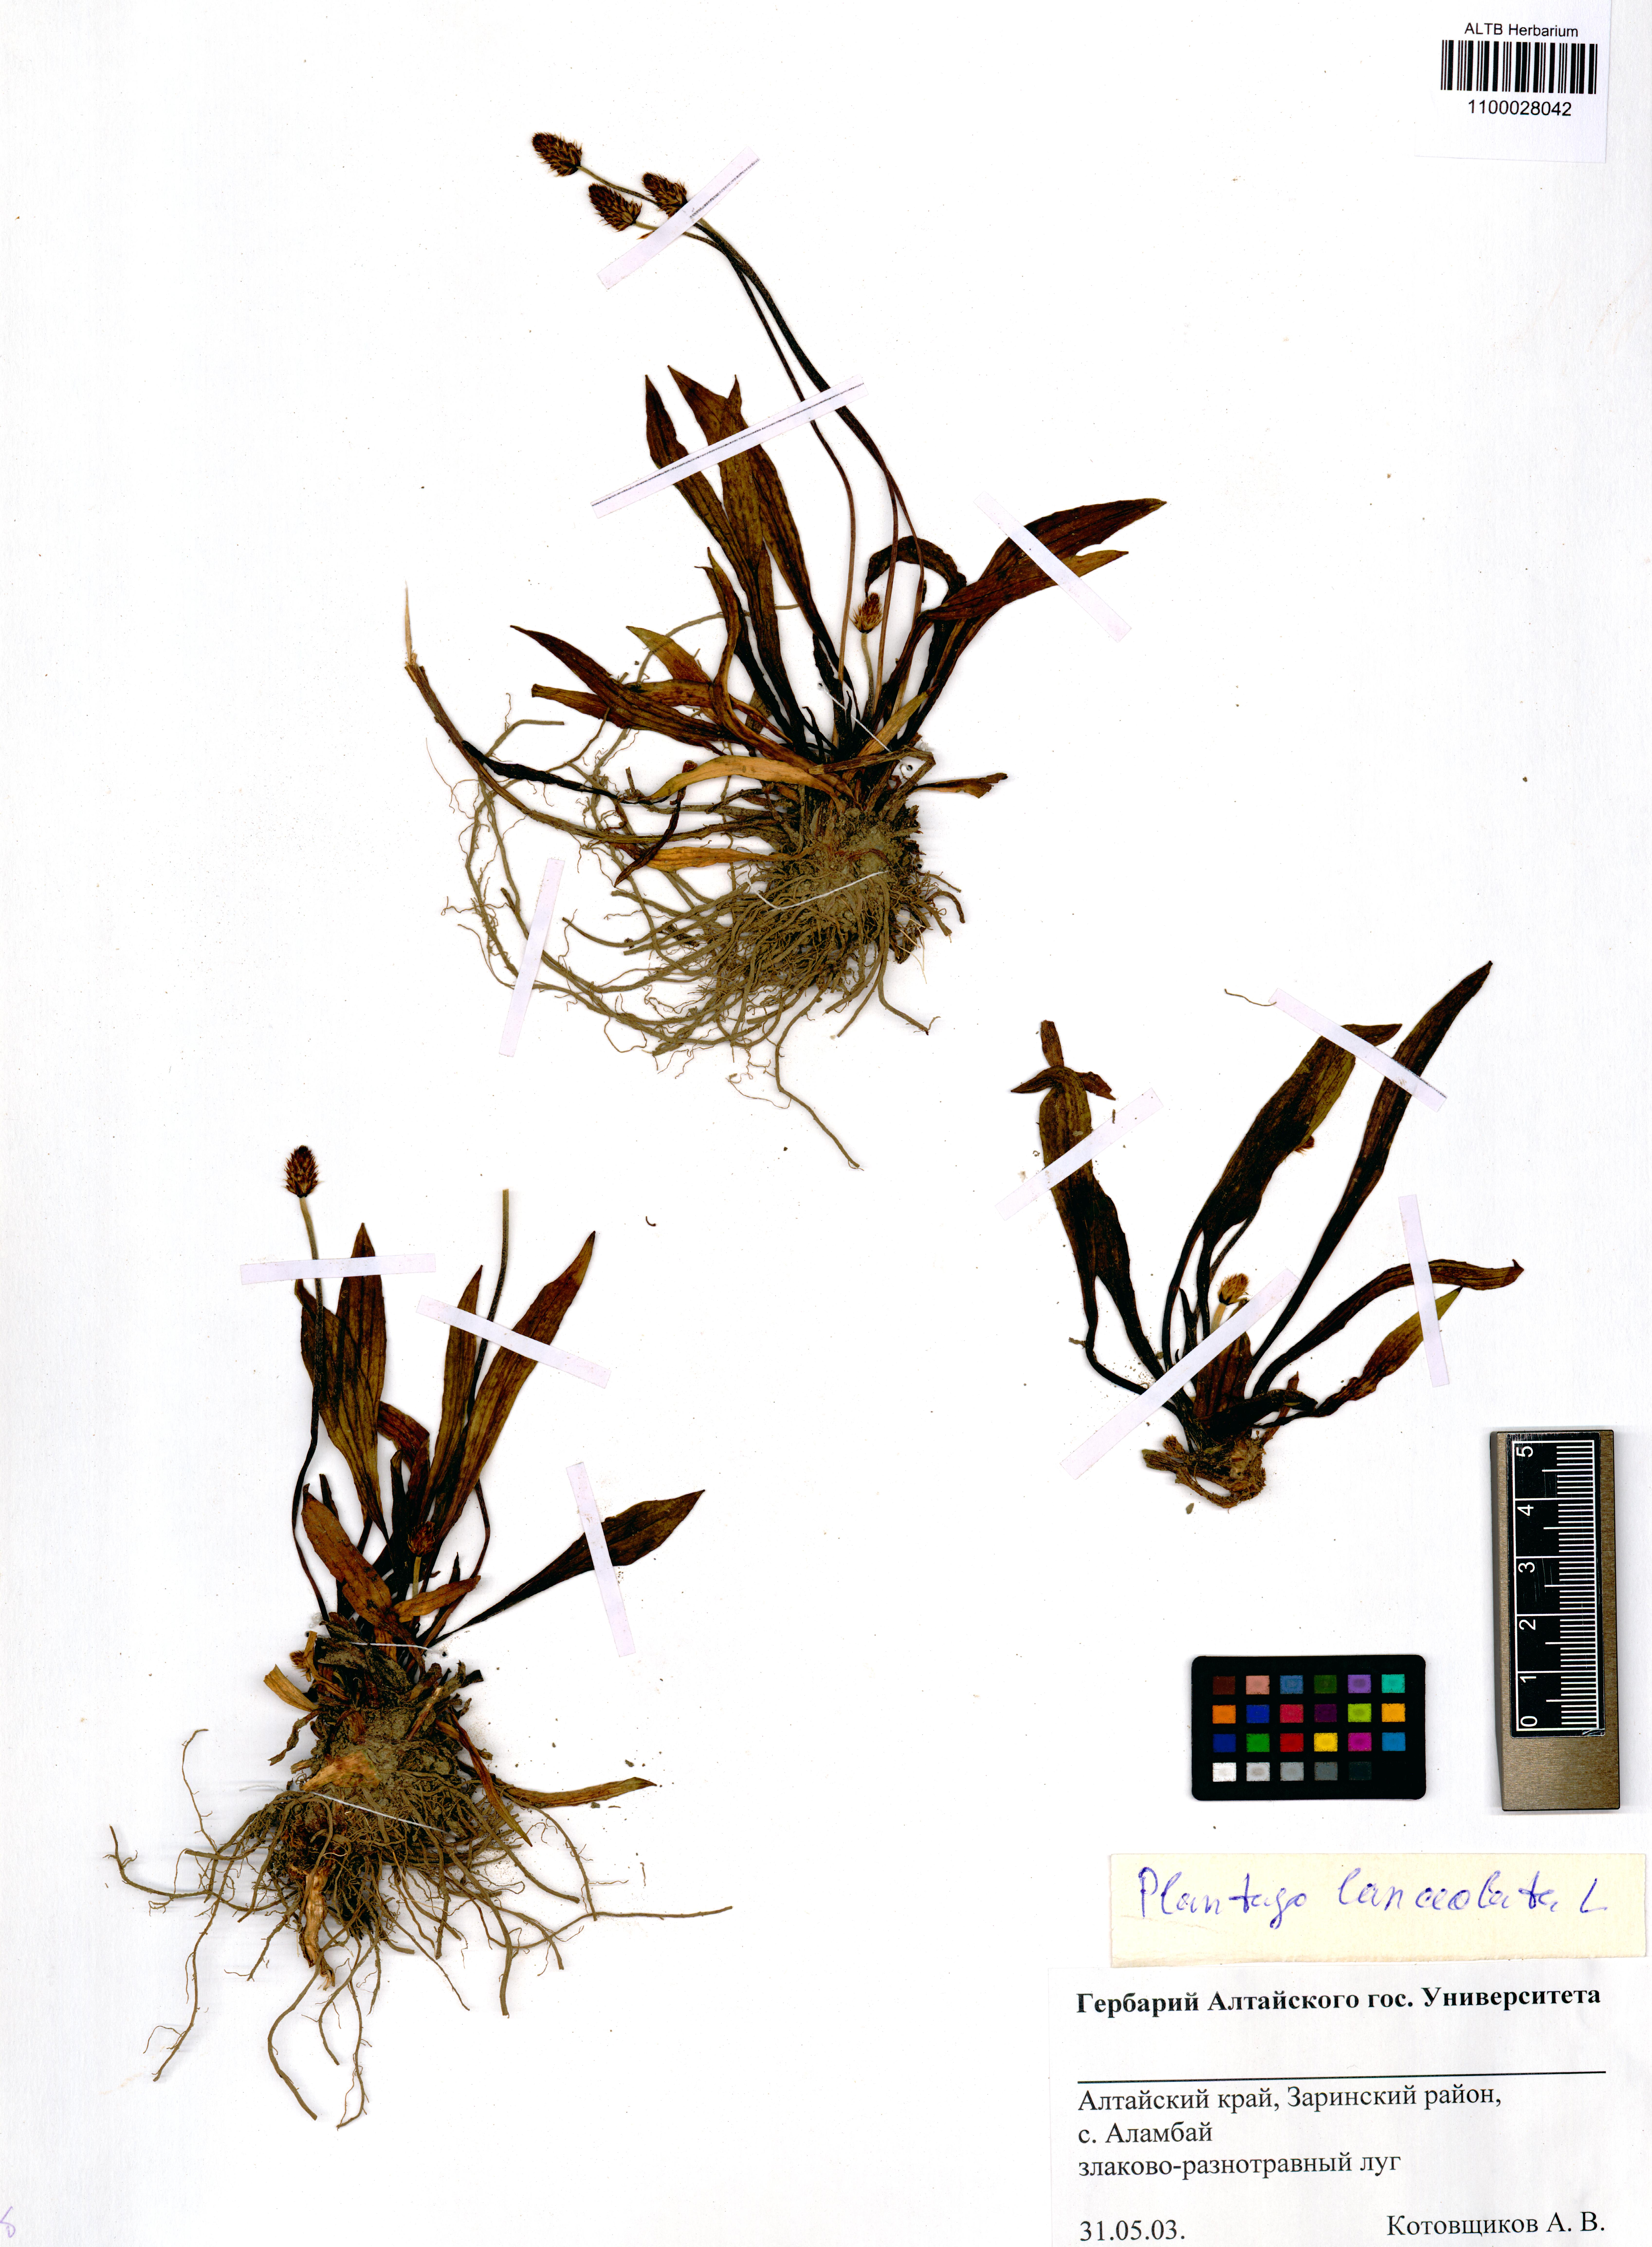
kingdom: Plantae
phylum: Tracheophyta
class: Magnoliopsida
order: Lamiales
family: Plantaginaceae
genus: Plantago
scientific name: Plantago lanceolata
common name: Ribwort plantain
